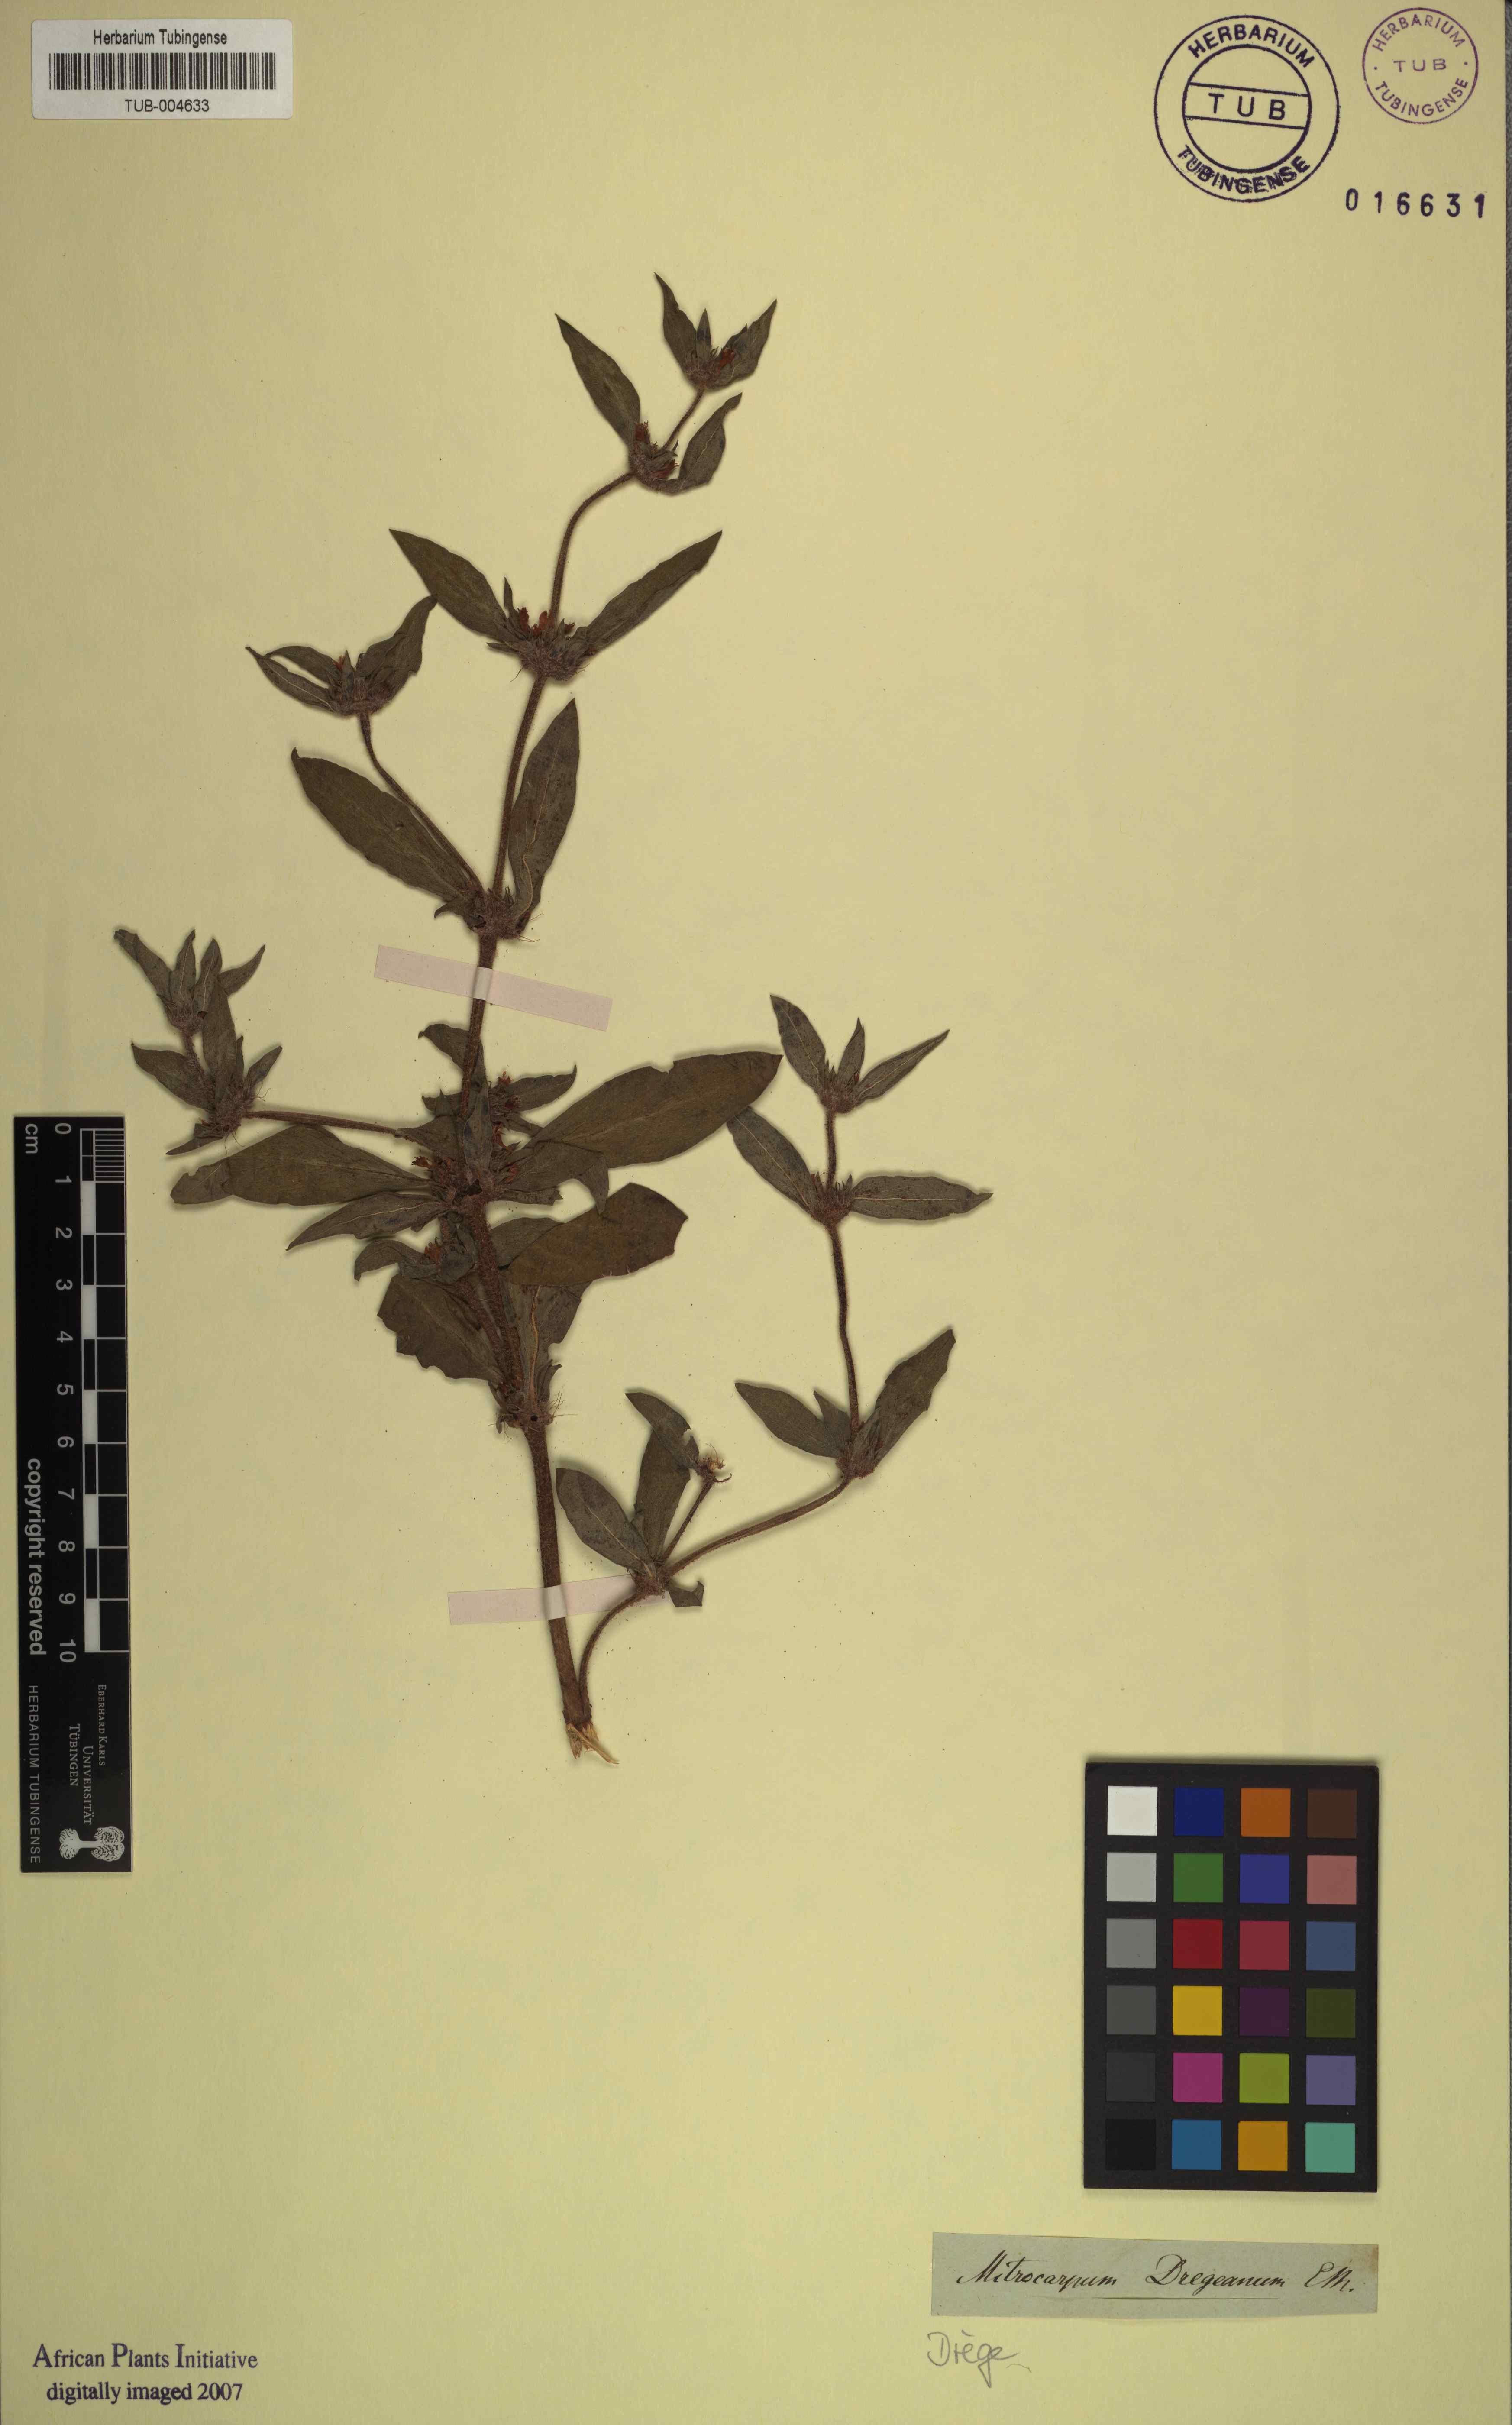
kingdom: Plantae
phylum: Tracheophyta
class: Magnoliopsida
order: Gentianales
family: Rubiaceae
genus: Spermacoce
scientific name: Spermacoce senensis
